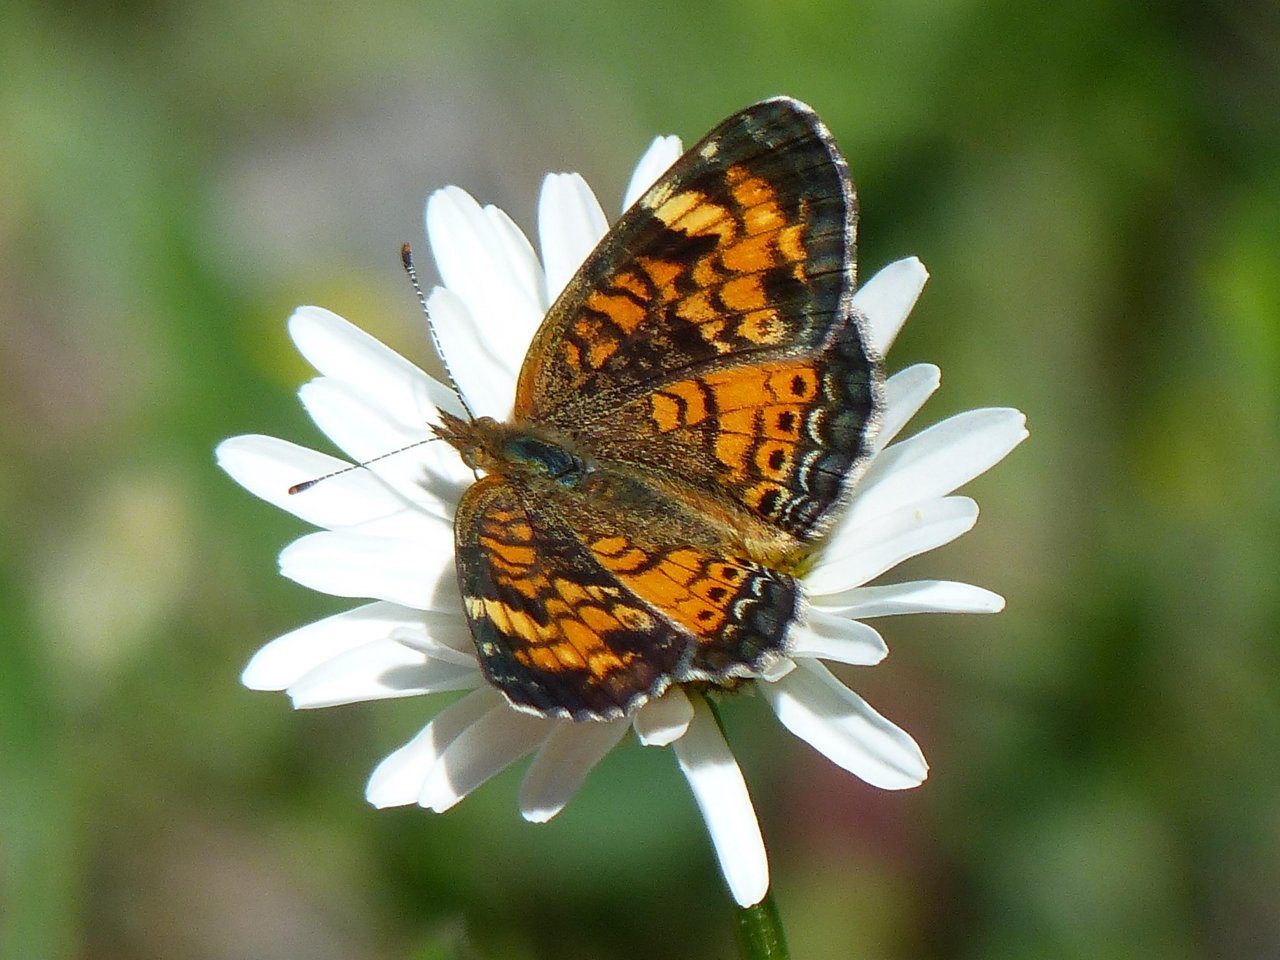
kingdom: Animalia
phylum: Arthropoda
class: Insecta
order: Lepidoptera
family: Nymphalidae
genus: Phyciodes
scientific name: Phyciodes tharos
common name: Northern Crescent
